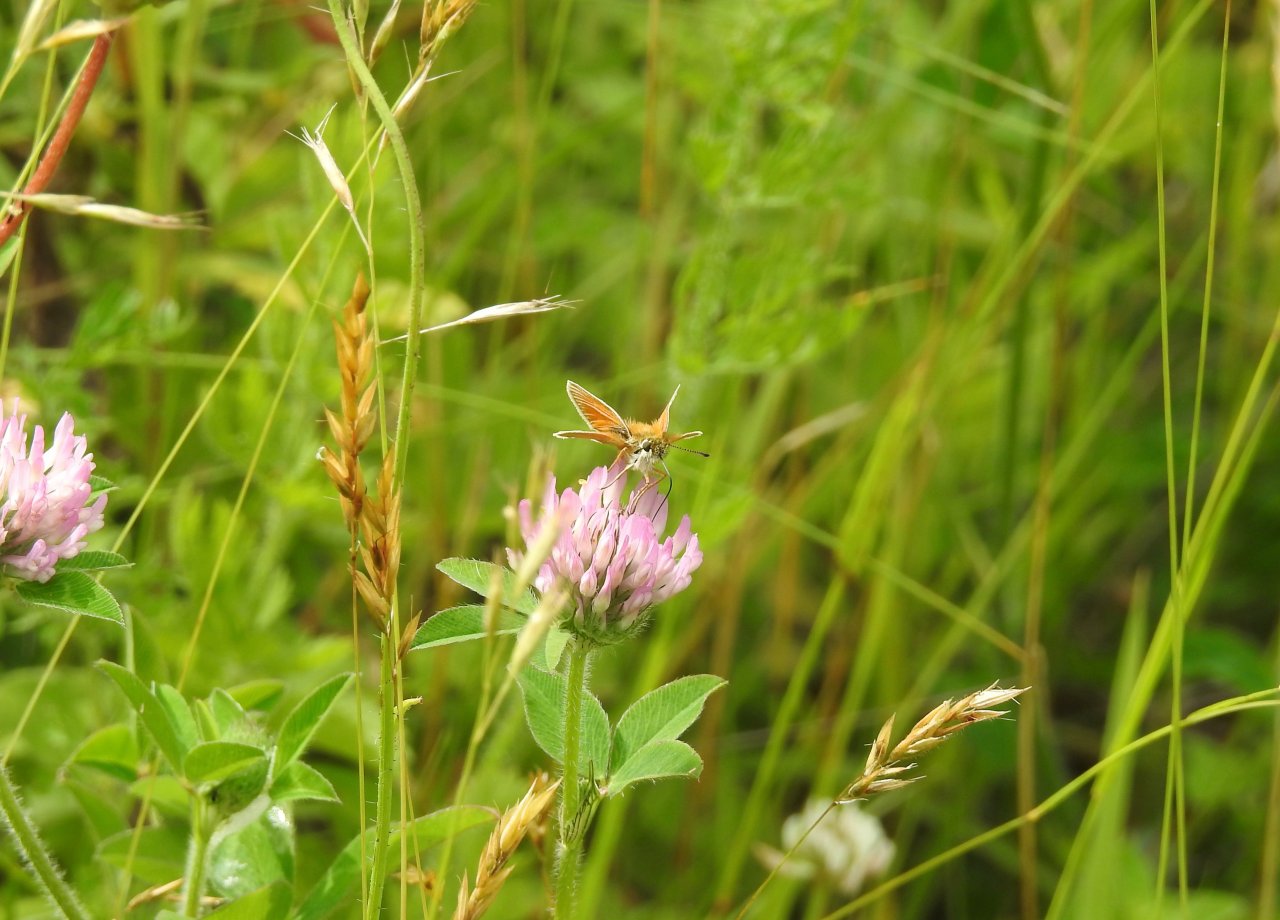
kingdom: Animalia
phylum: Arthropoda
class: Insecta
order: Lepidoptera
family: Hesperiidae
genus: Thymelicus
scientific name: Thymelicus lineola
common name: European Skipper
